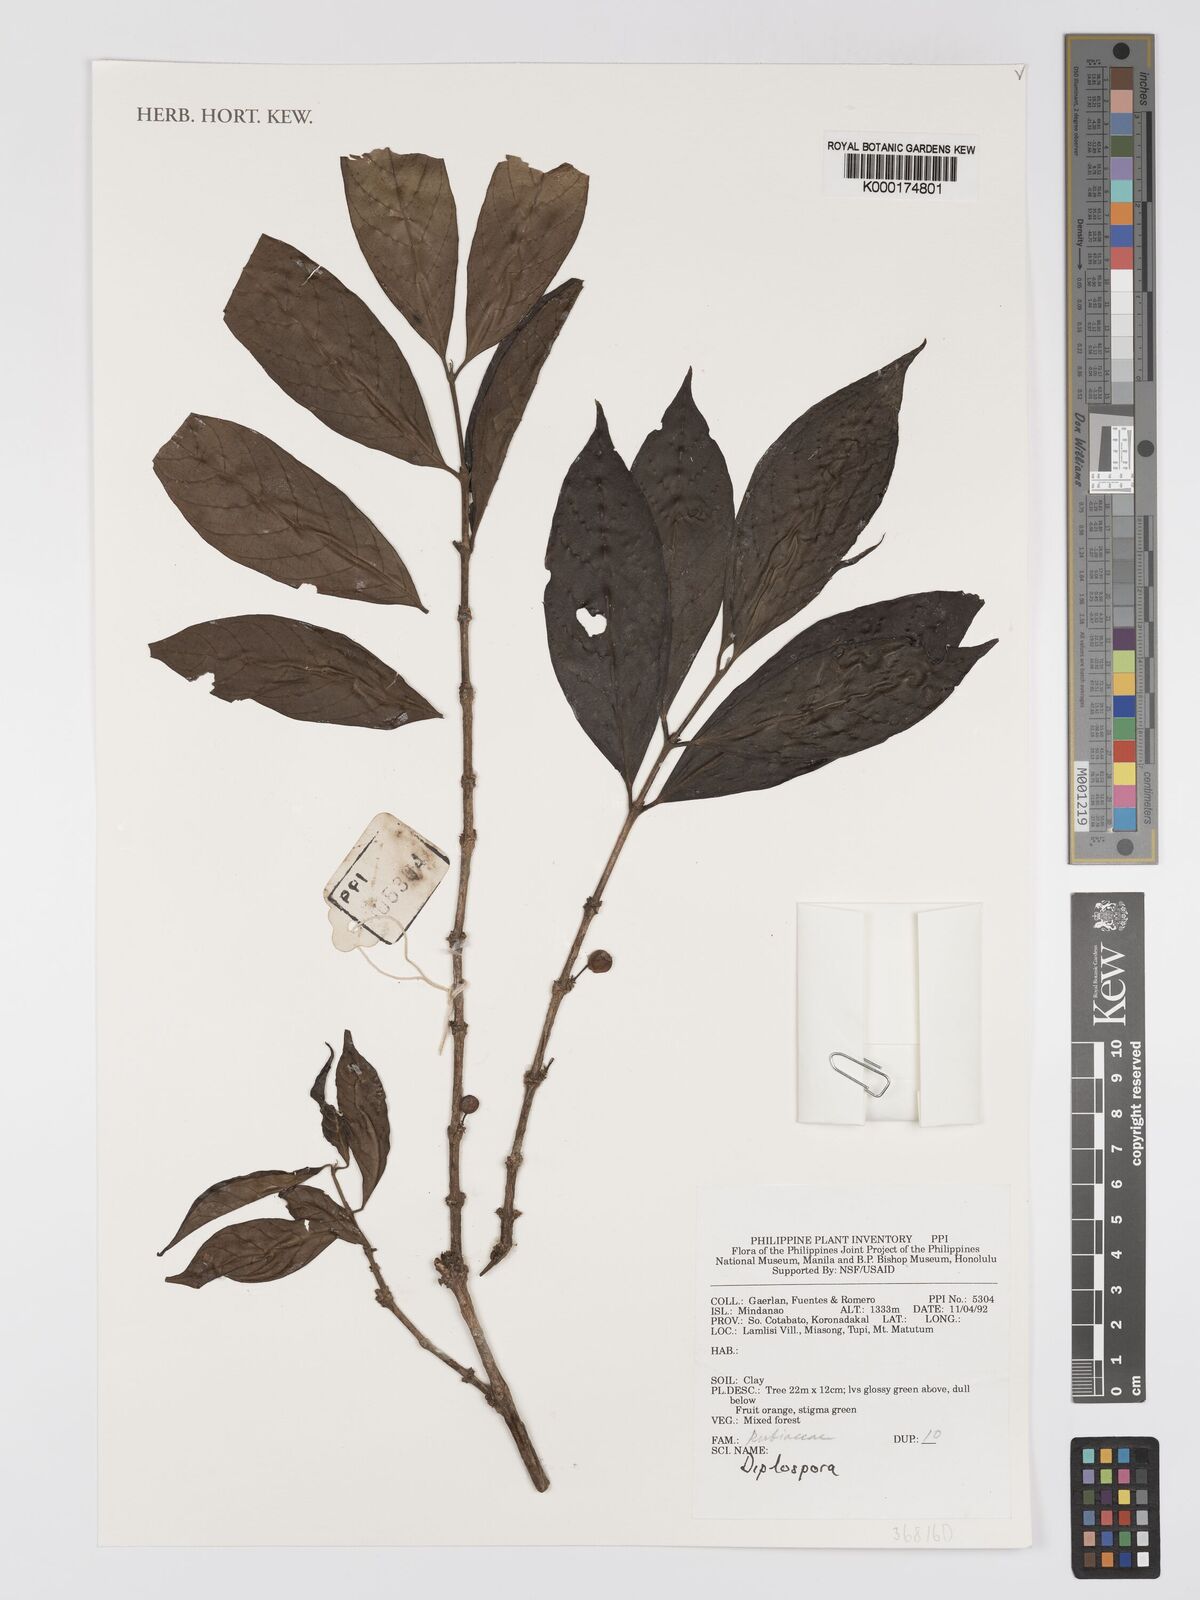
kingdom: Plantae
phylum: Tracheophyta
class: Magnoliopsida
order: Gentianales
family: Rubiaceae
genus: Diplospora
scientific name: Diplospora
